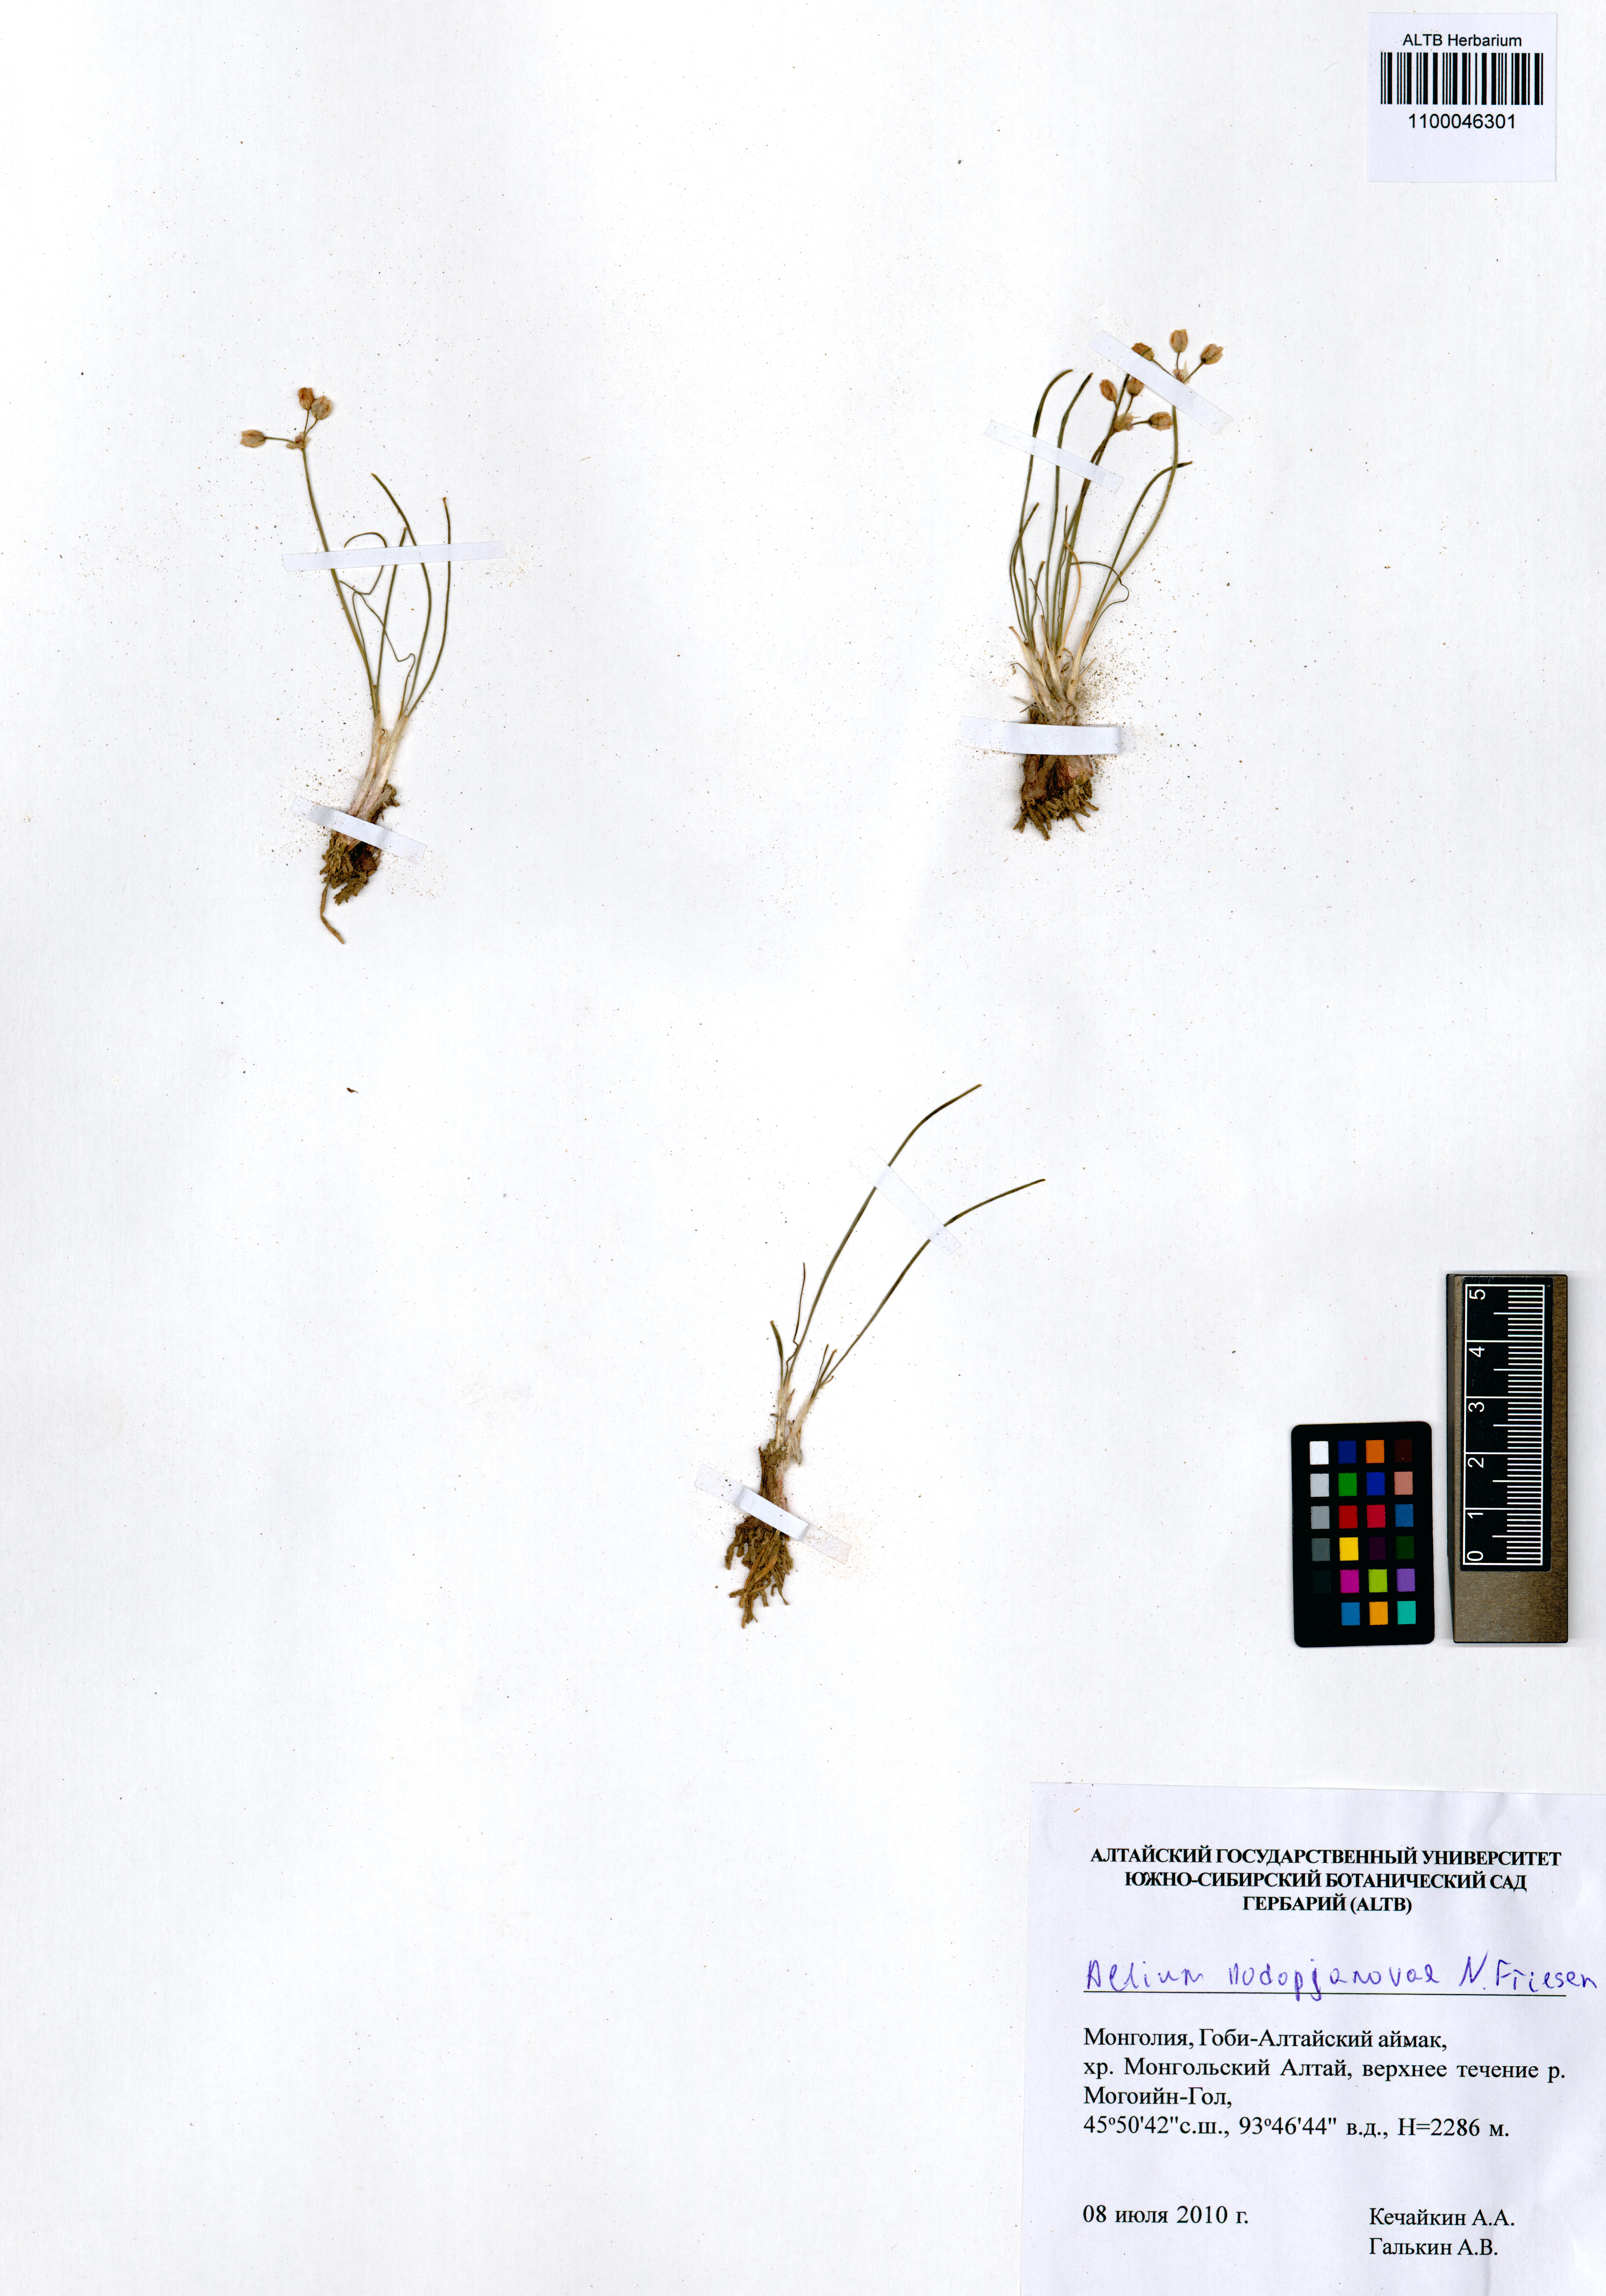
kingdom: Plantae
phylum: Tracheophyta
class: Liliopsida
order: Asparagales
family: Amaryllidaceae
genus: Allium
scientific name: Allium vodopjanovae
